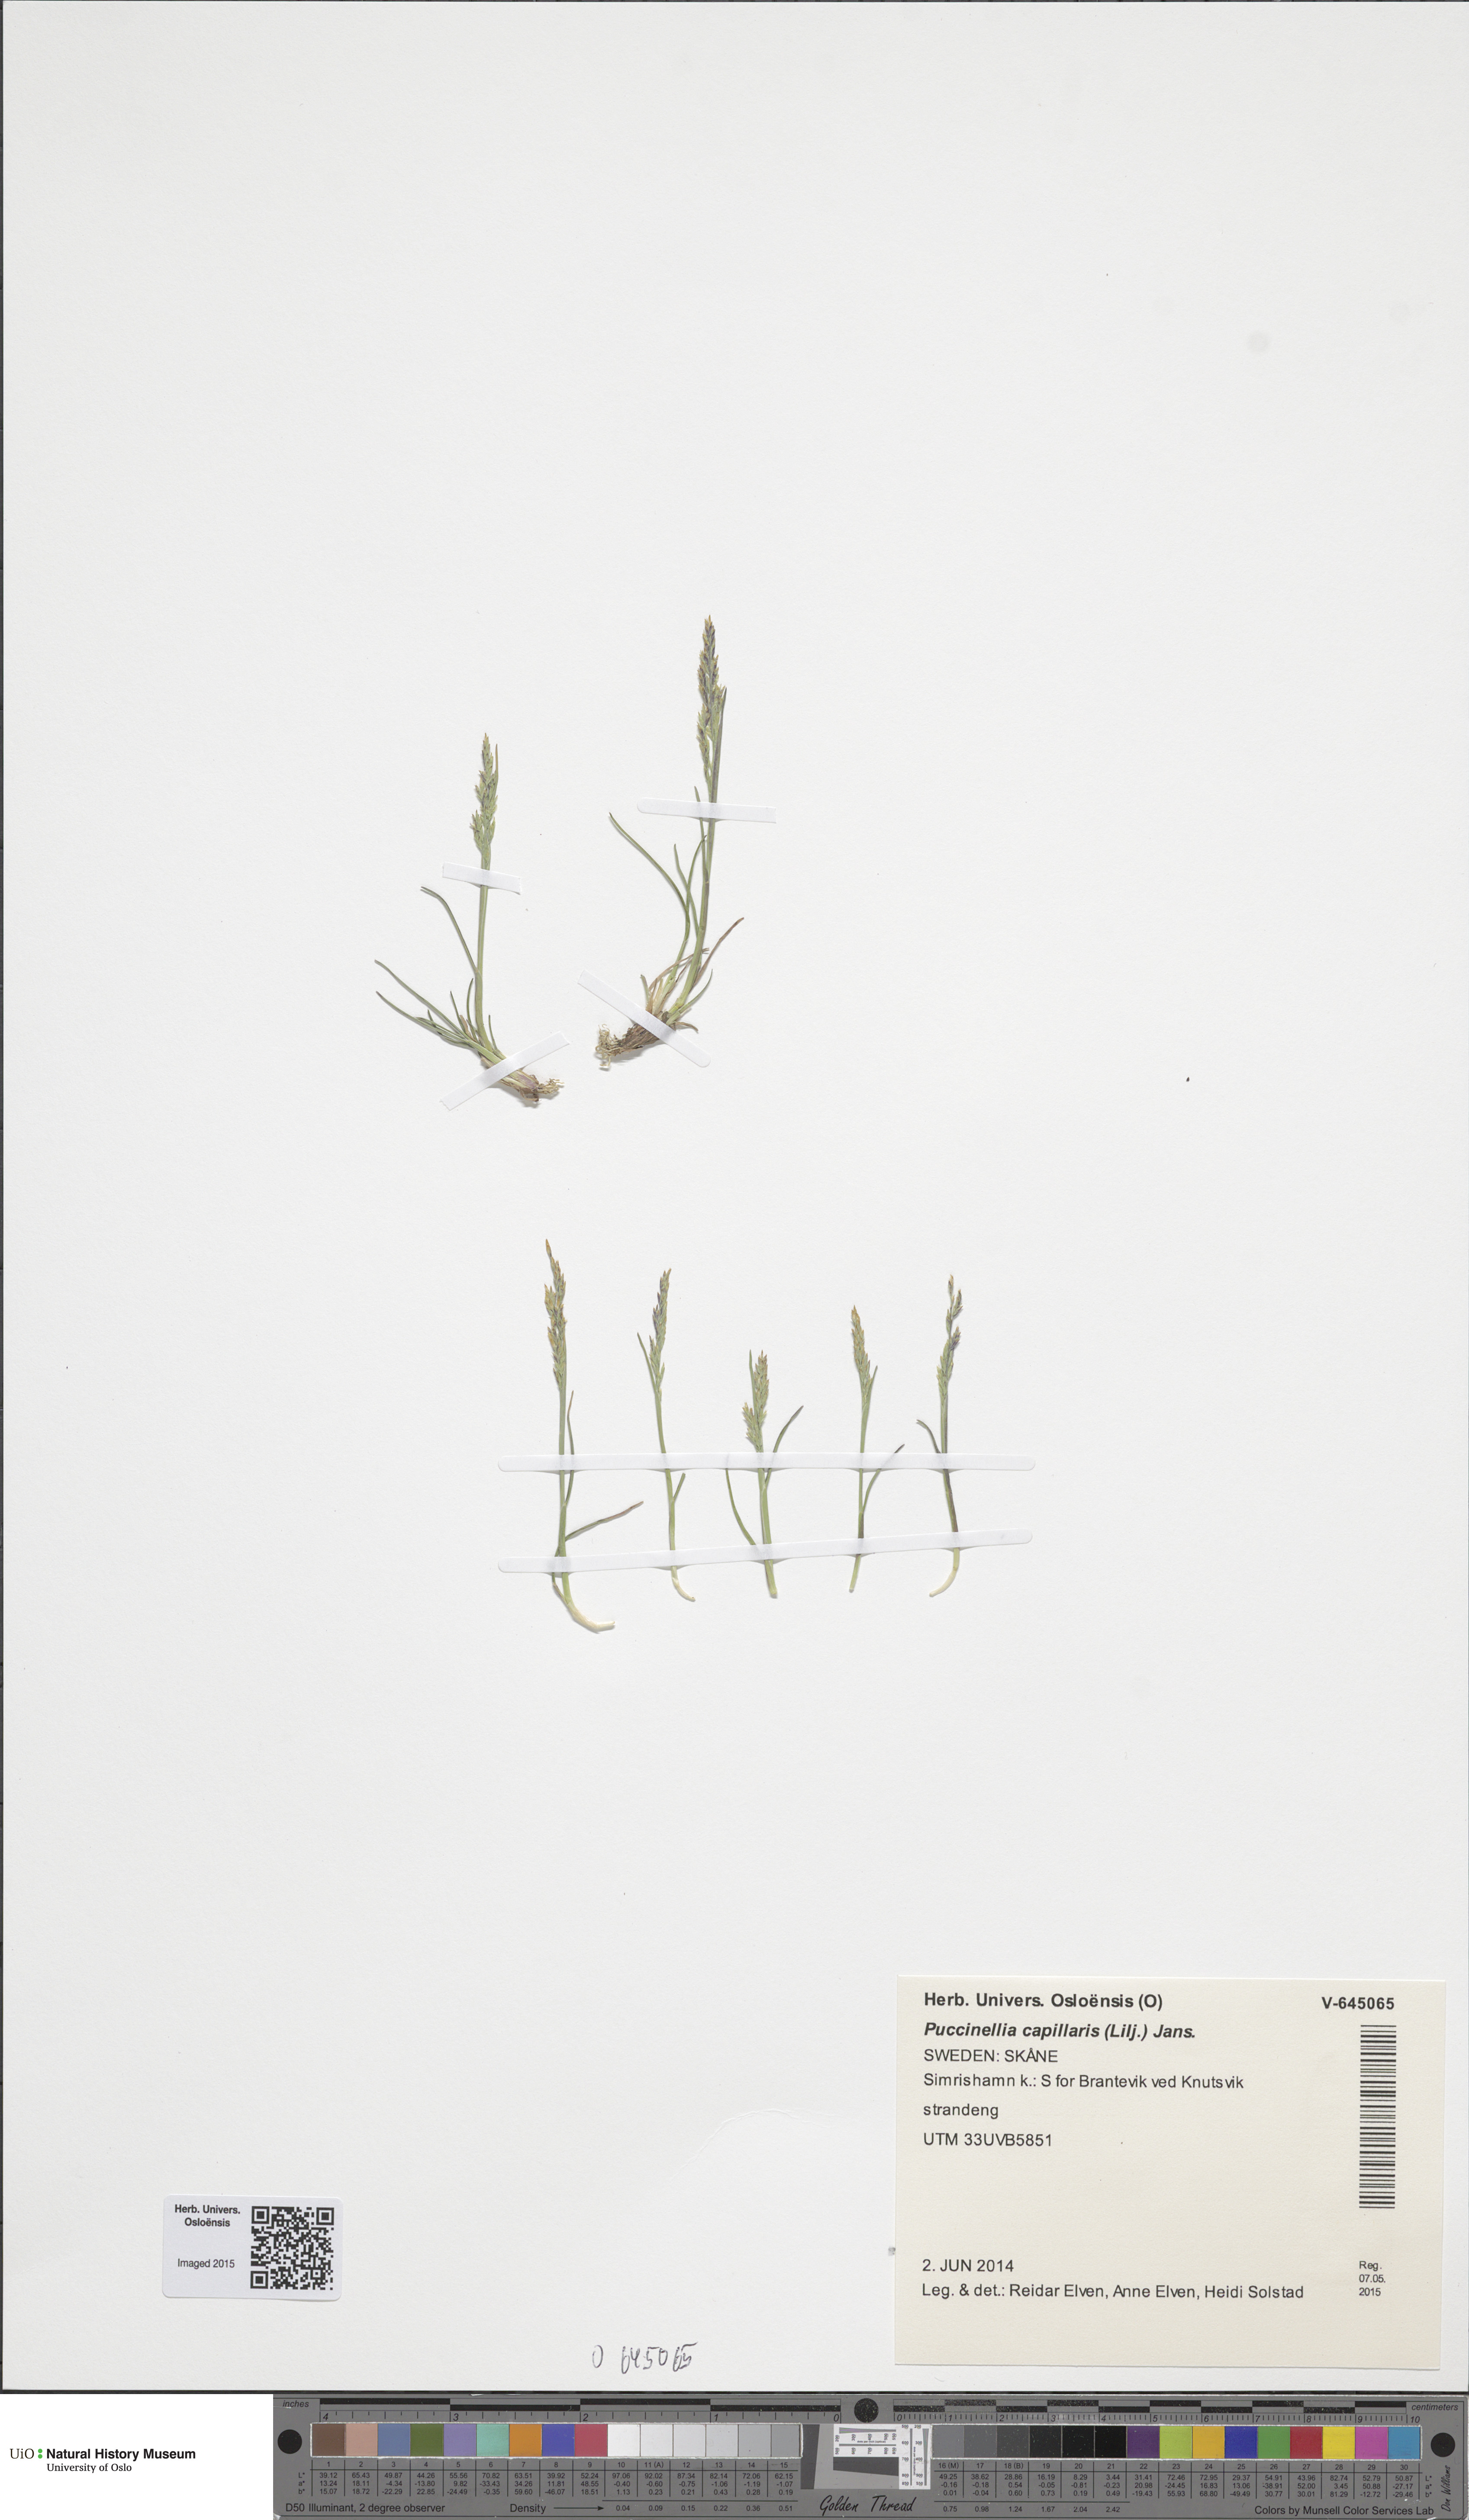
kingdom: Plantae
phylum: Tracheophyta
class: Liliopsida
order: Poales
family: Poaceae
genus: Puccinellia
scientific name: Puccinellia distans
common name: Weeping alkaligrass
